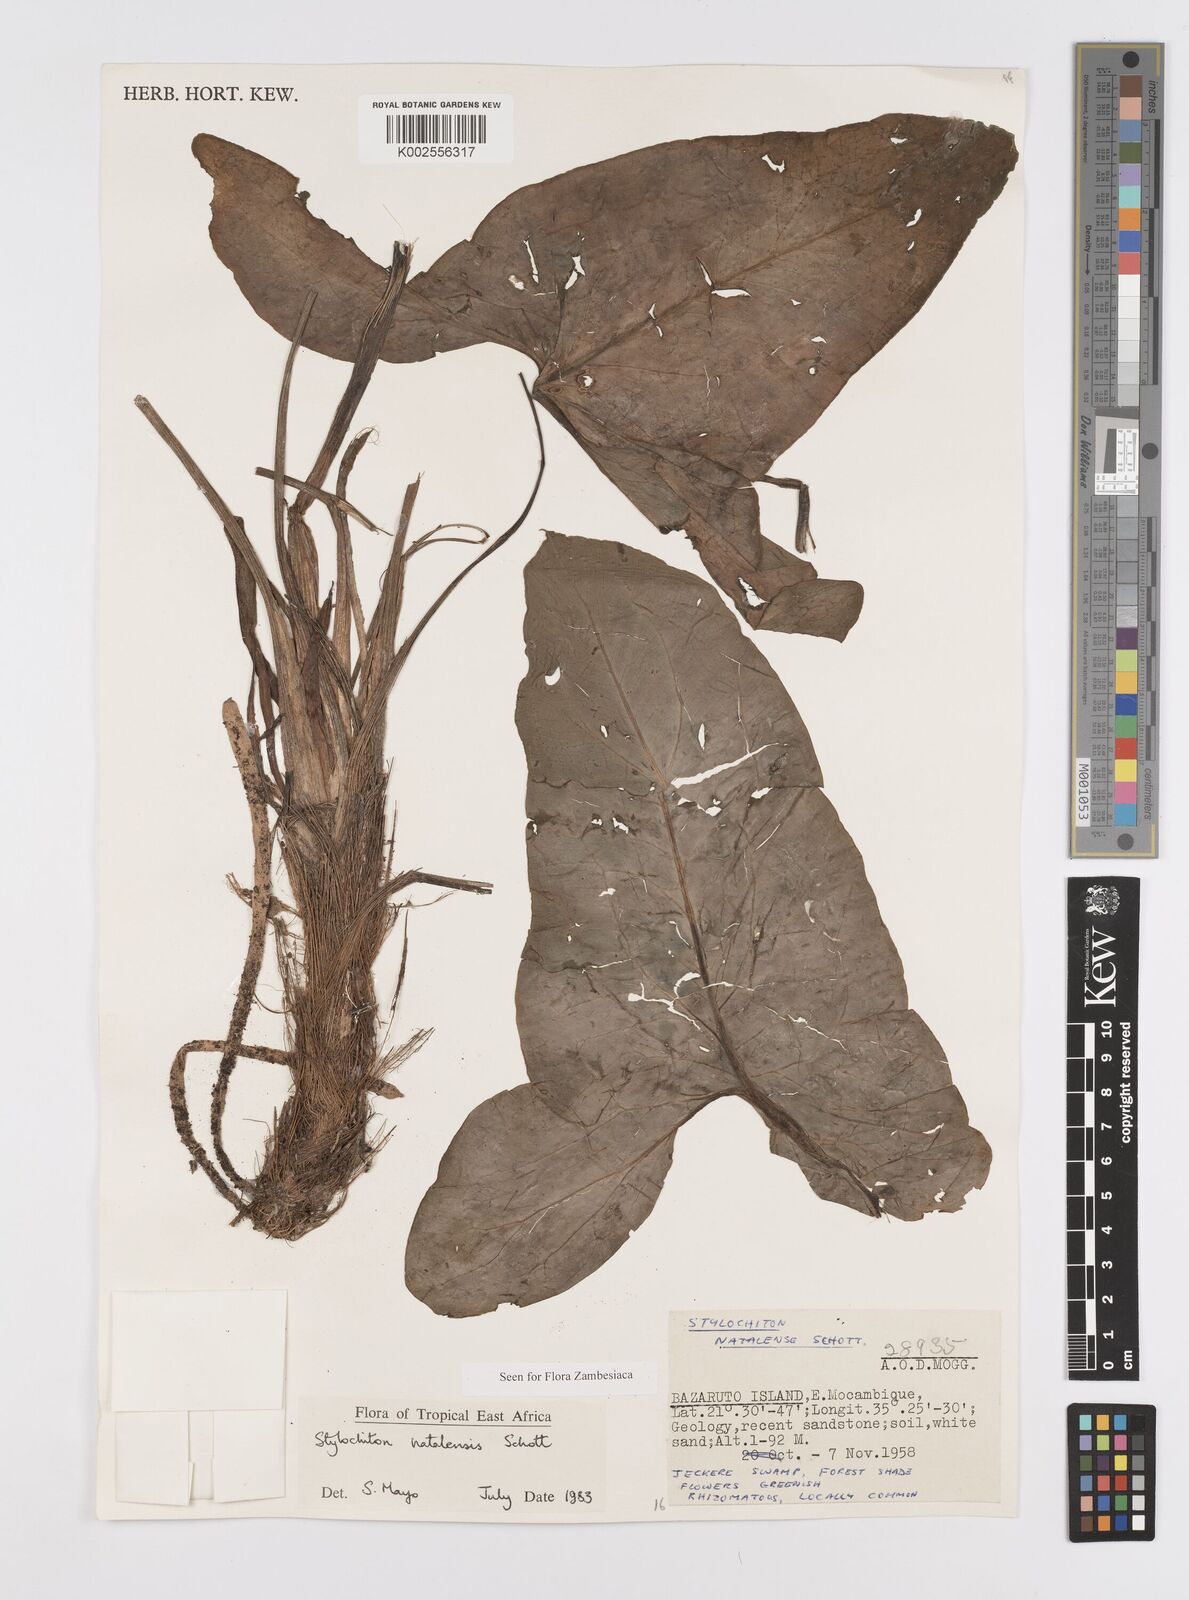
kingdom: Plantae
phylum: Tracheophyta
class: Liliopsida
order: Alismatales
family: Araceae
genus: Stylochaeton
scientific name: Stylochaeton natalense
